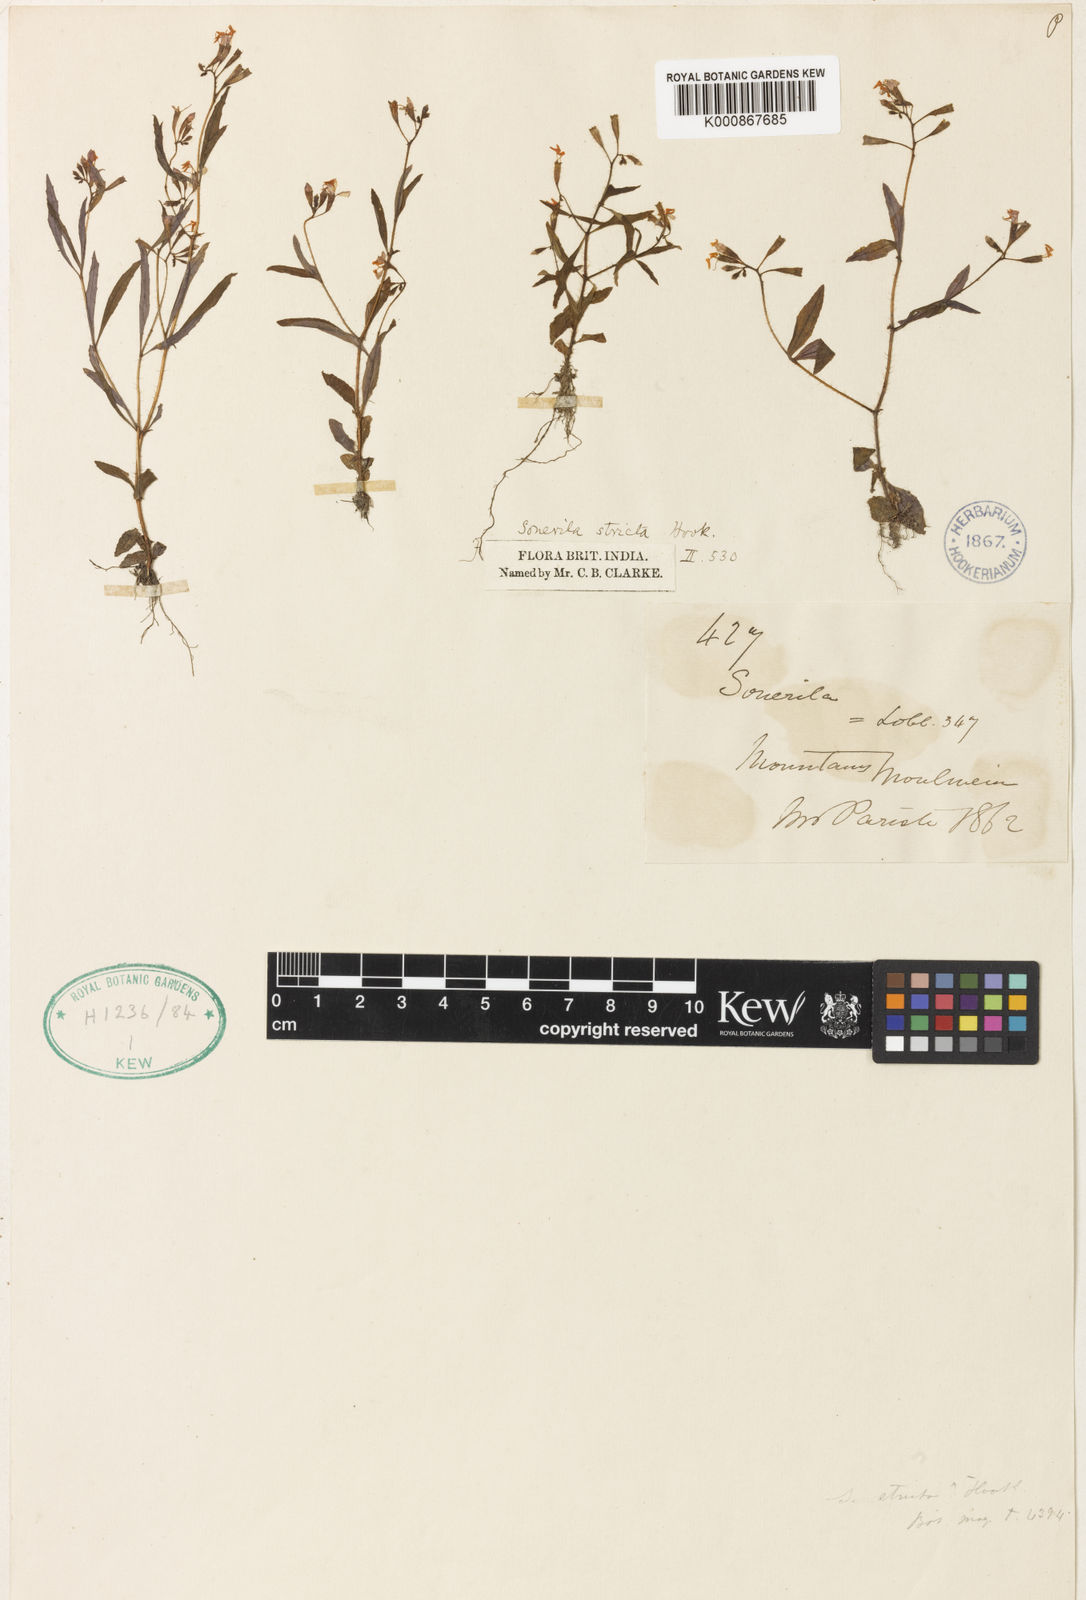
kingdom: Plantae
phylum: Tracheophyta
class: Magnoliopsida
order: Myrtales
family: Melastomataceae
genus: Sonerila
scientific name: Sonerila hookeriana
